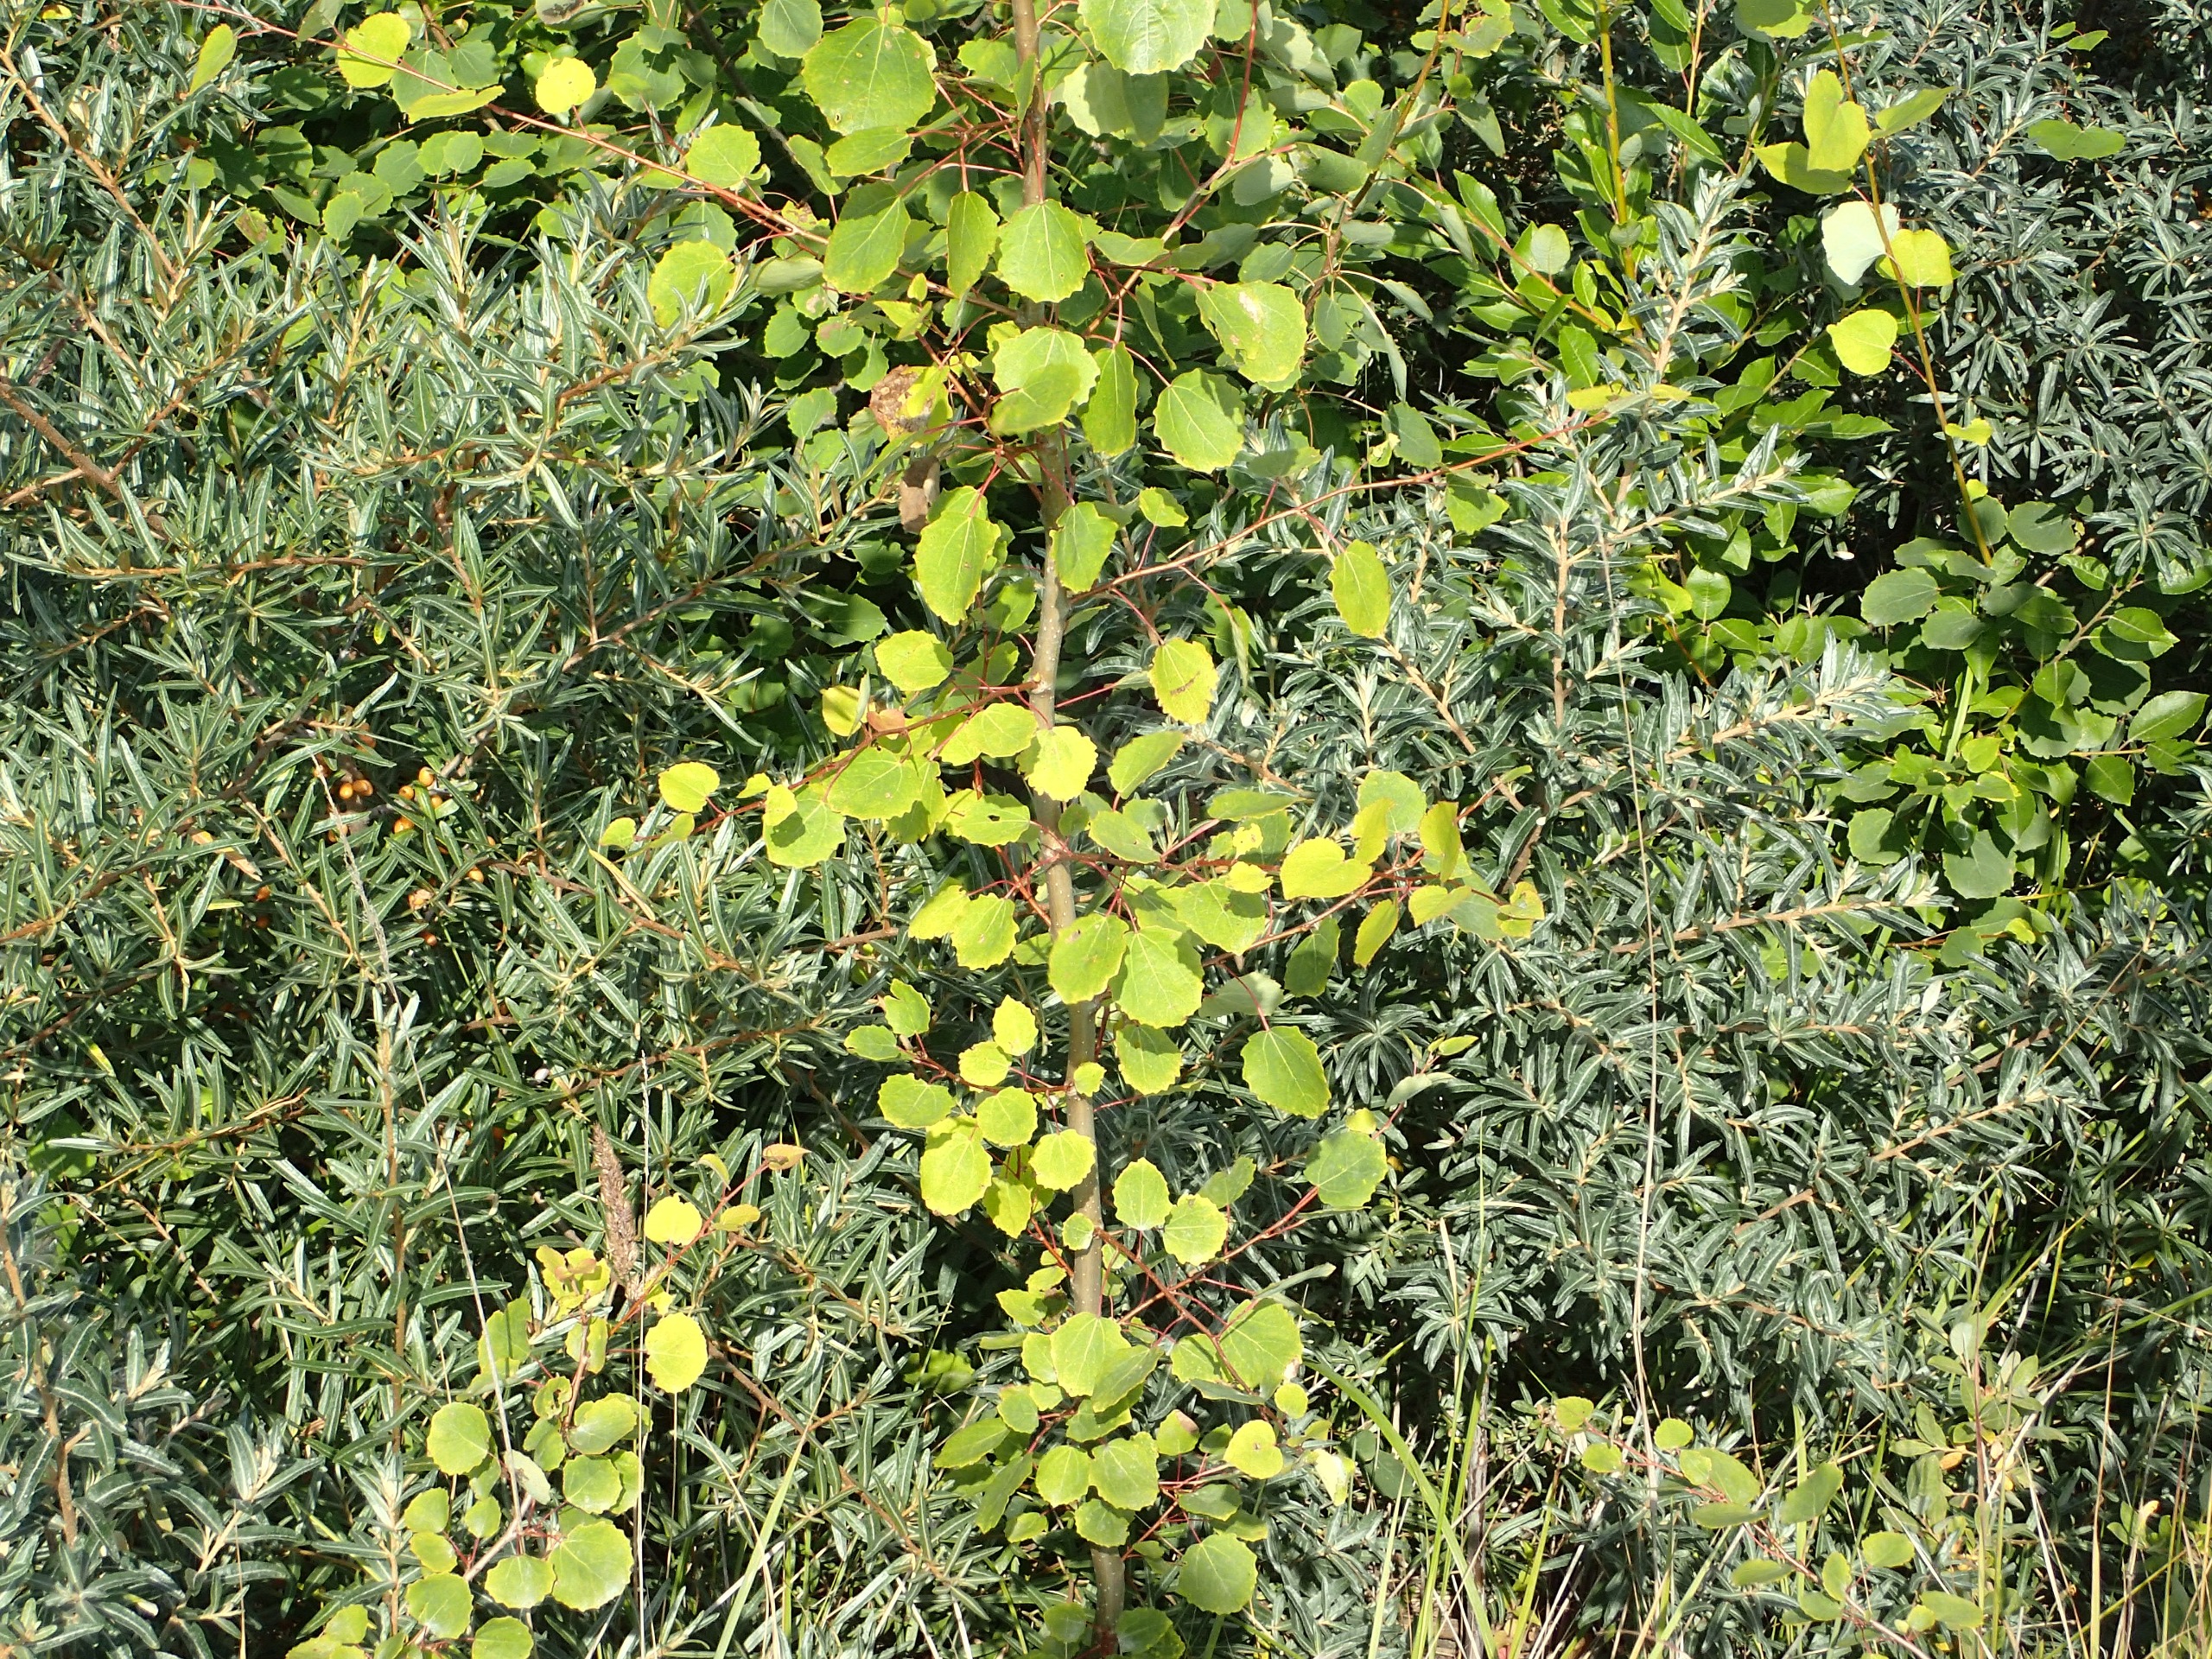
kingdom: Plantae
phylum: Tracheophyta
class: Magnoliopsida
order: Malpighiales
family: Salicaceae
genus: Populus
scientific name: Populus tremula
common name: Bævreasp
